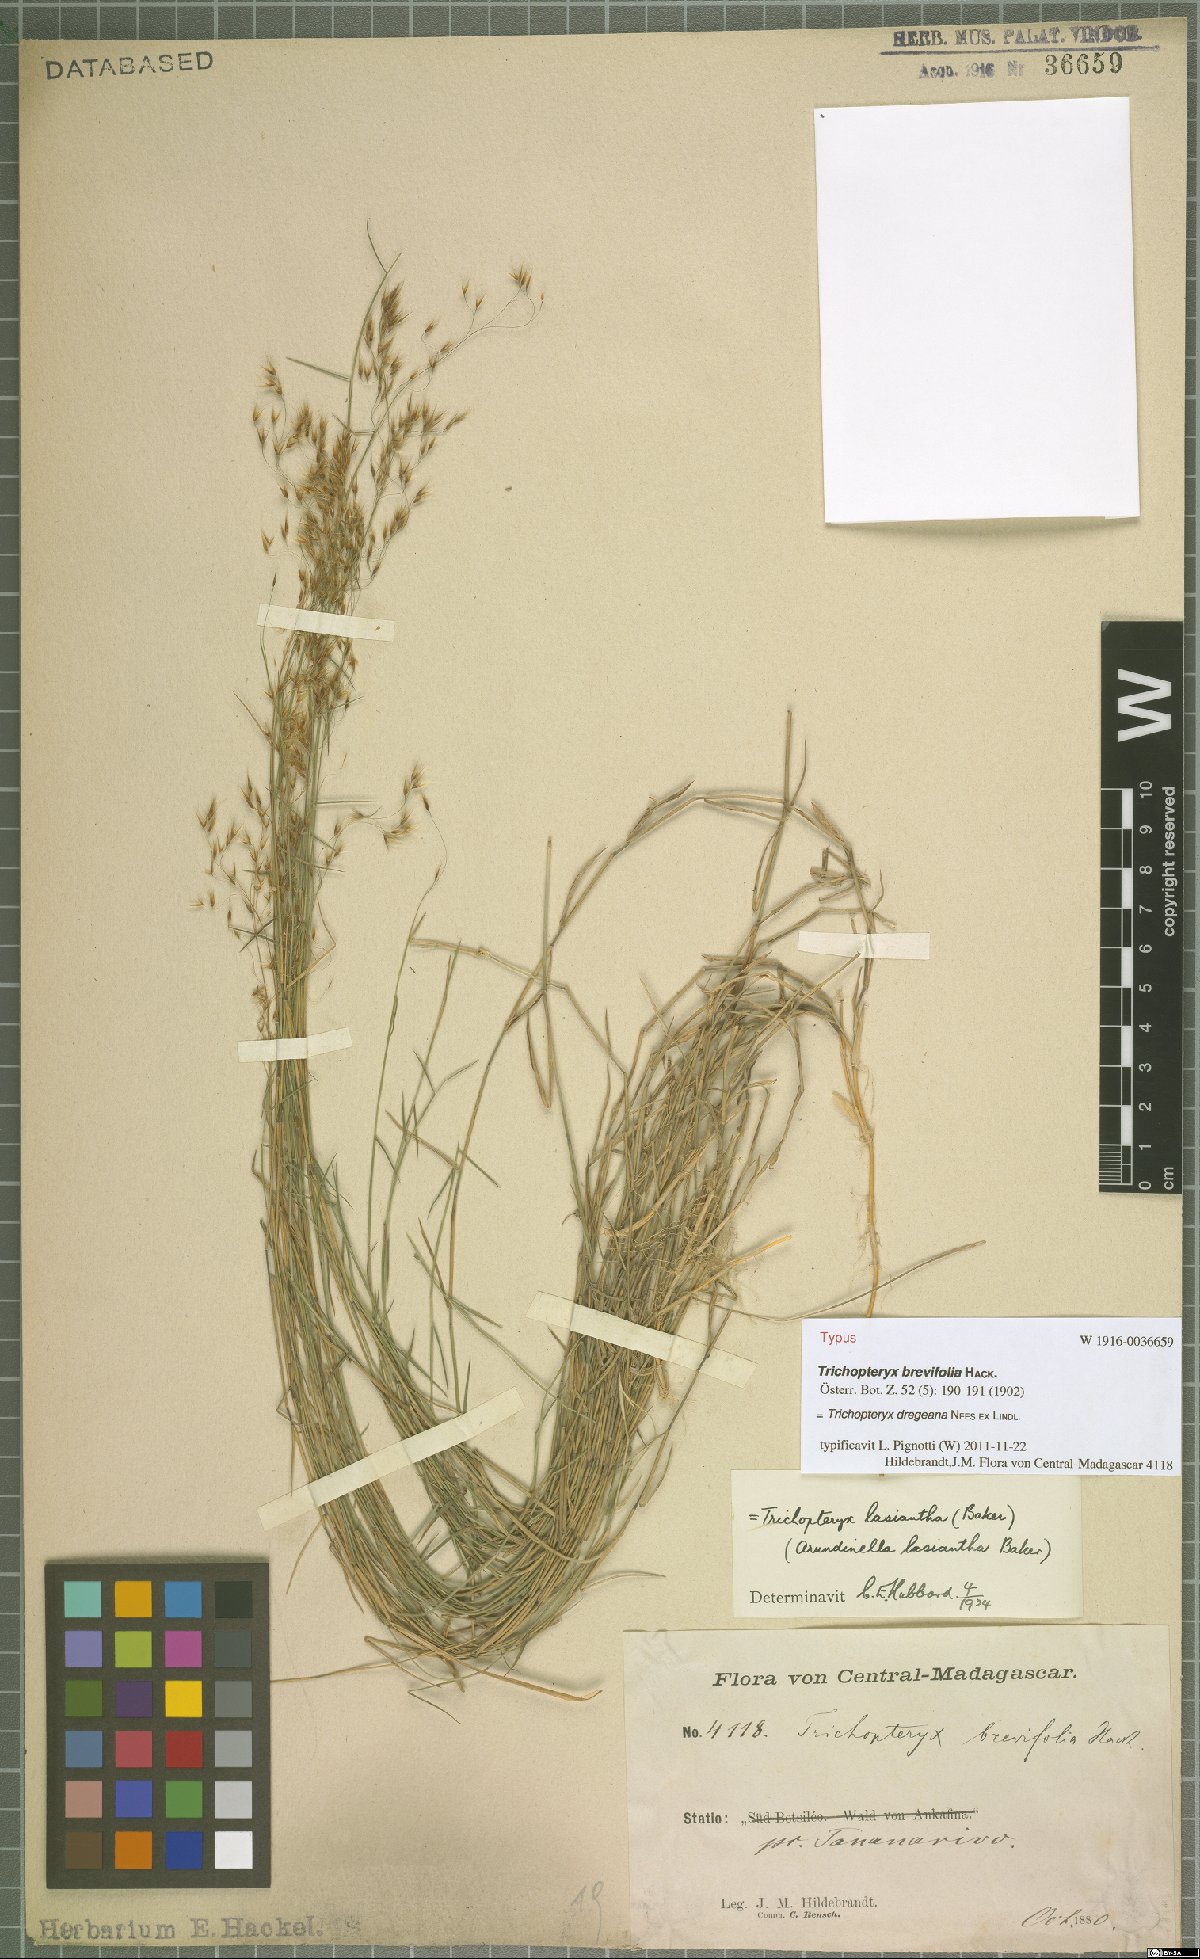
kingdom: Plantae
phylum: Tracheophyta
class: Liliopsida
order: Poales
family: Poaceae
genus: Trichopteryx
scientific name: Trichopteryx dregeana
